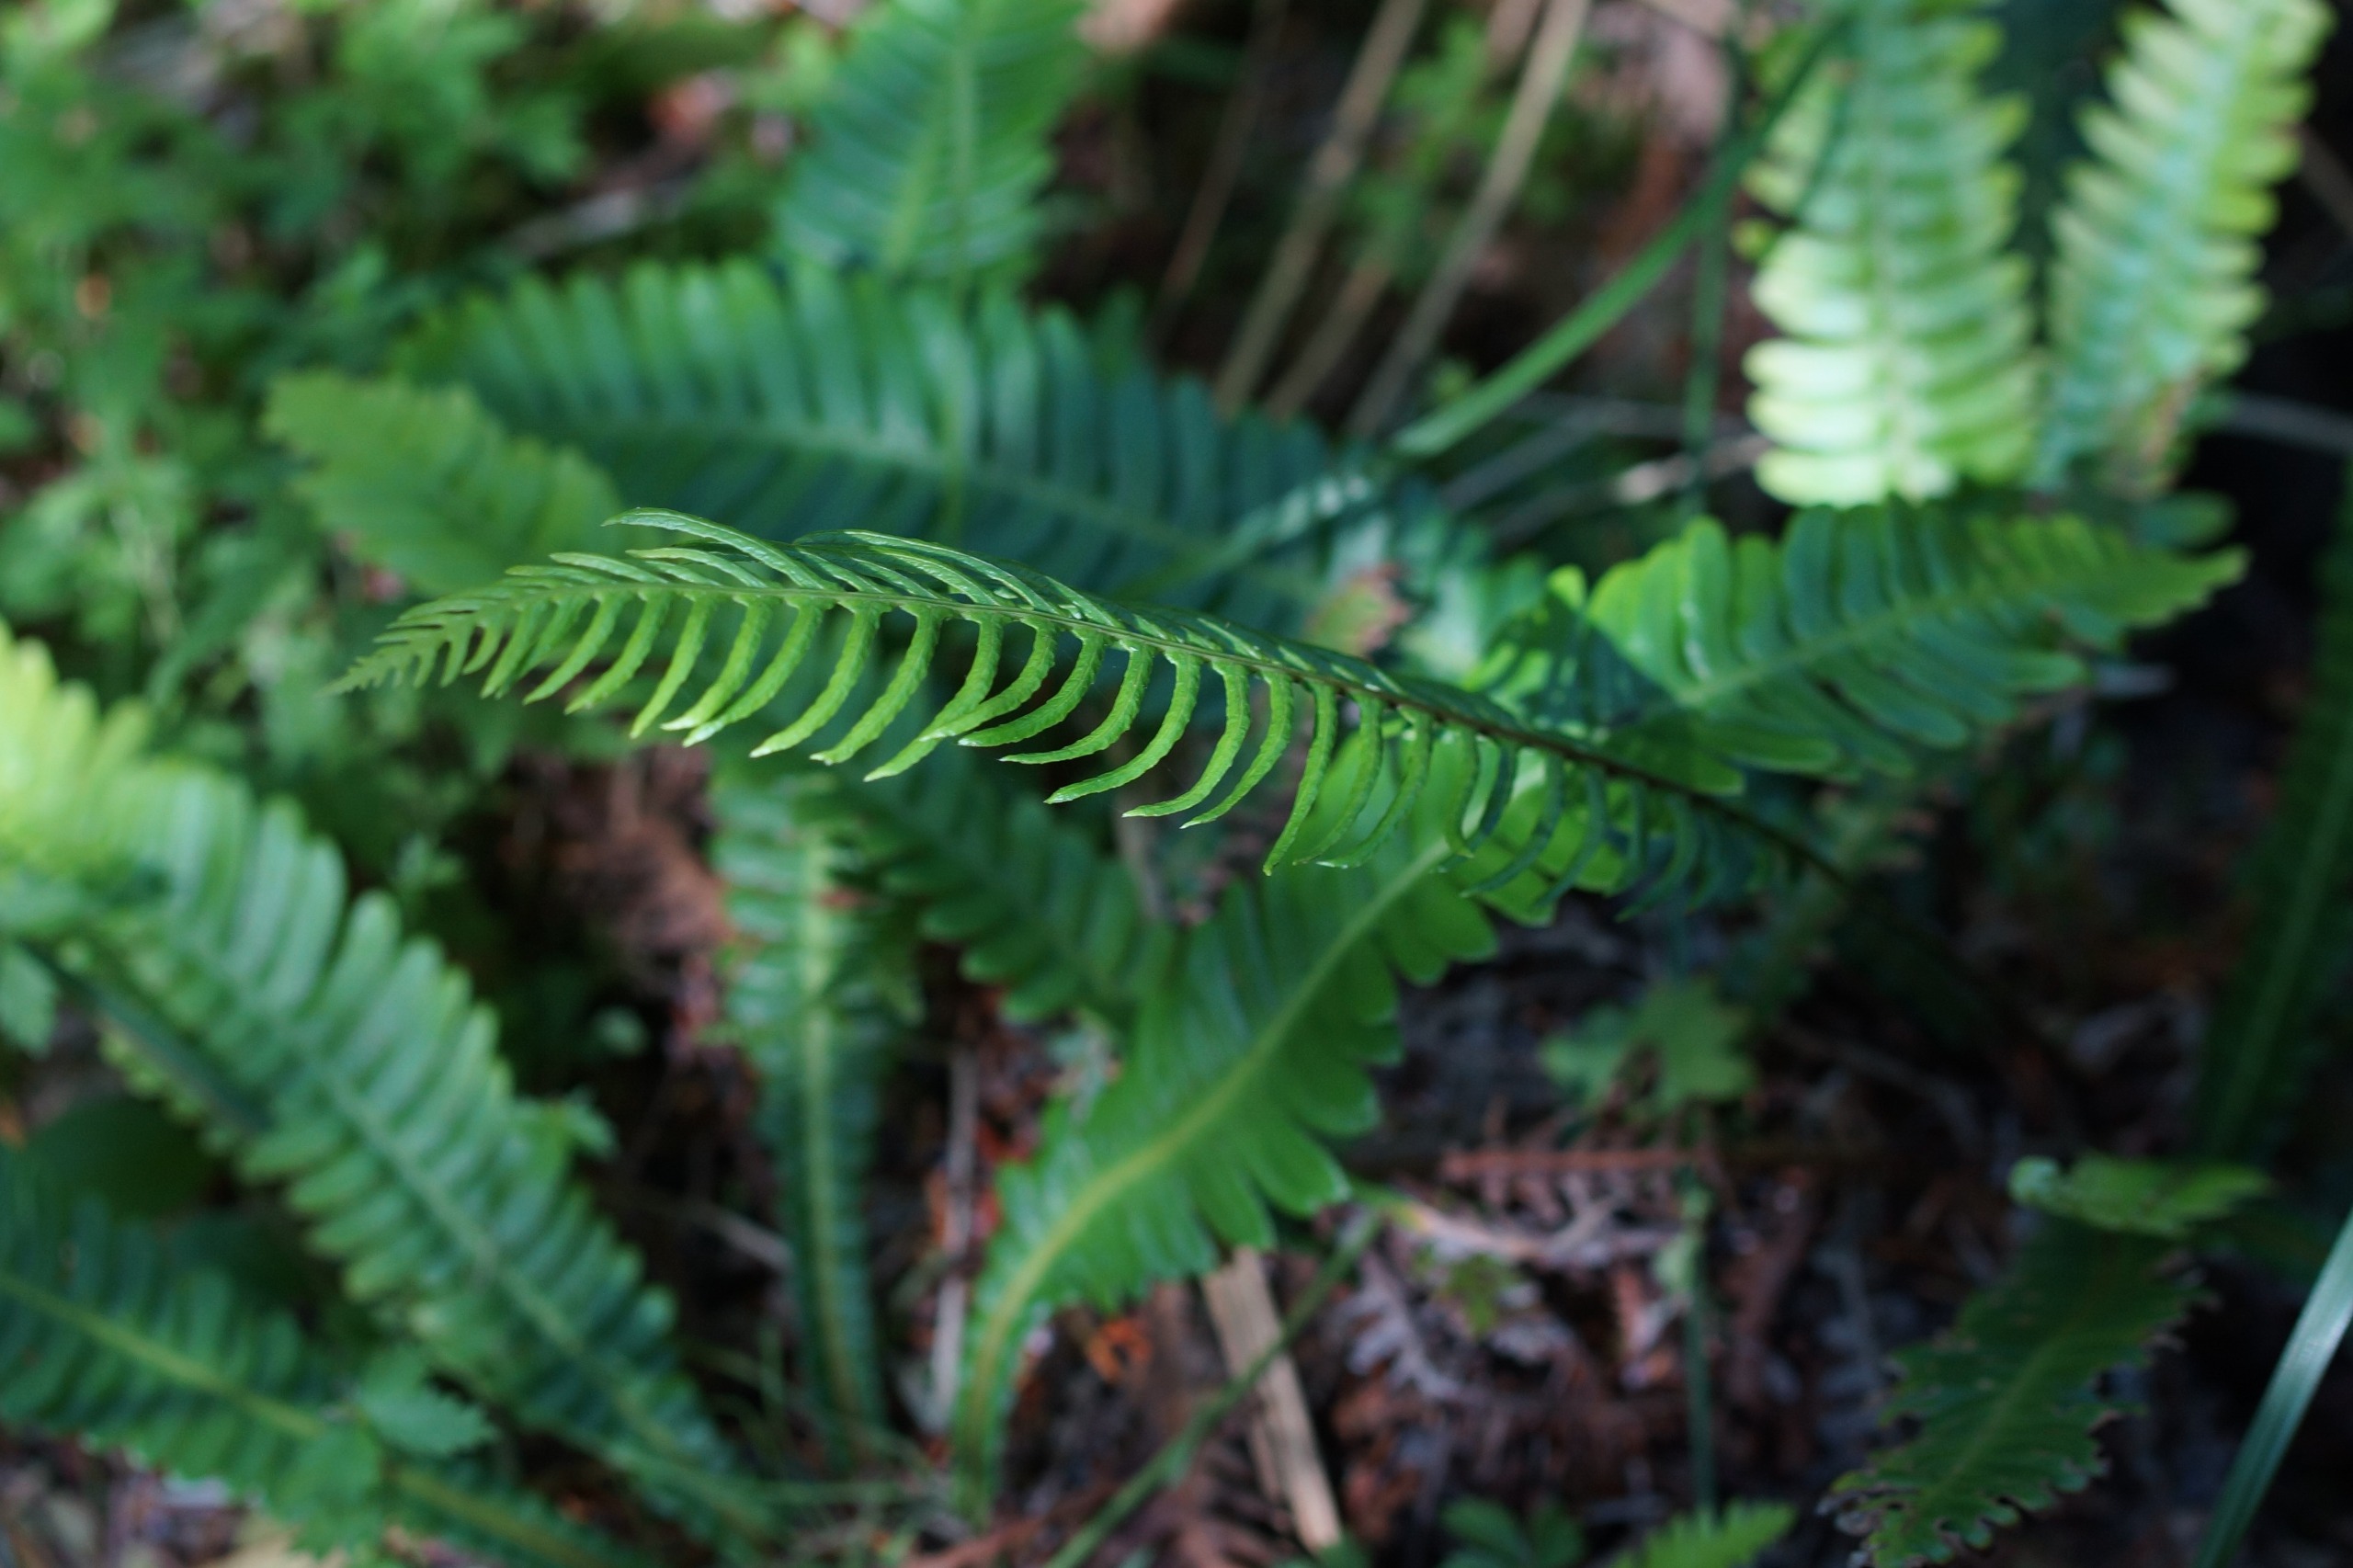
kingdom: Plantae
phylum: Tracheophyta
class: Polypodiopsida
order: Polypodiales
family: Blechnaceae
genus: Struthiopteris
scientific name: Struthiopteris spicant
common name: Kambregne
